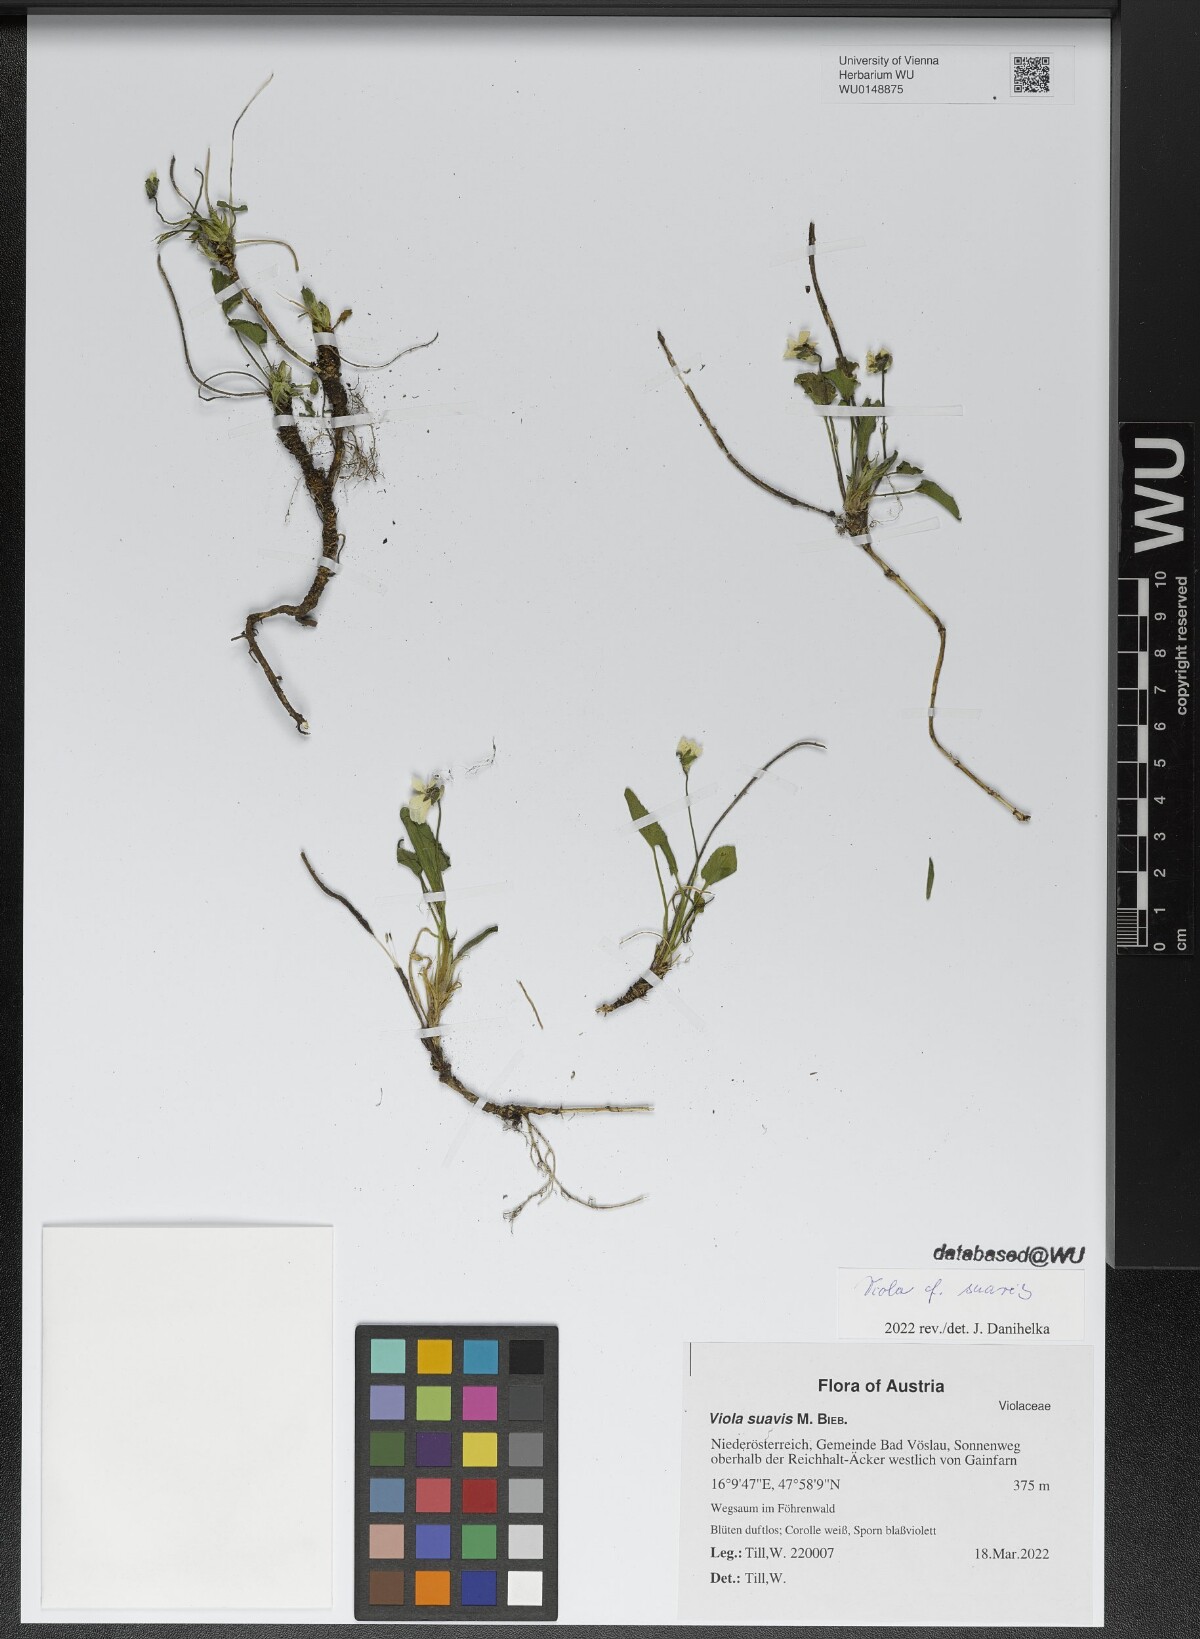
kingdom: Plantae
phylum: Tracheophyta
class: Magnoliopsida
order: Malpighiales
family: Violaceae
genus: Viola
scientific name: Viola suavis
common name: Russian violet
